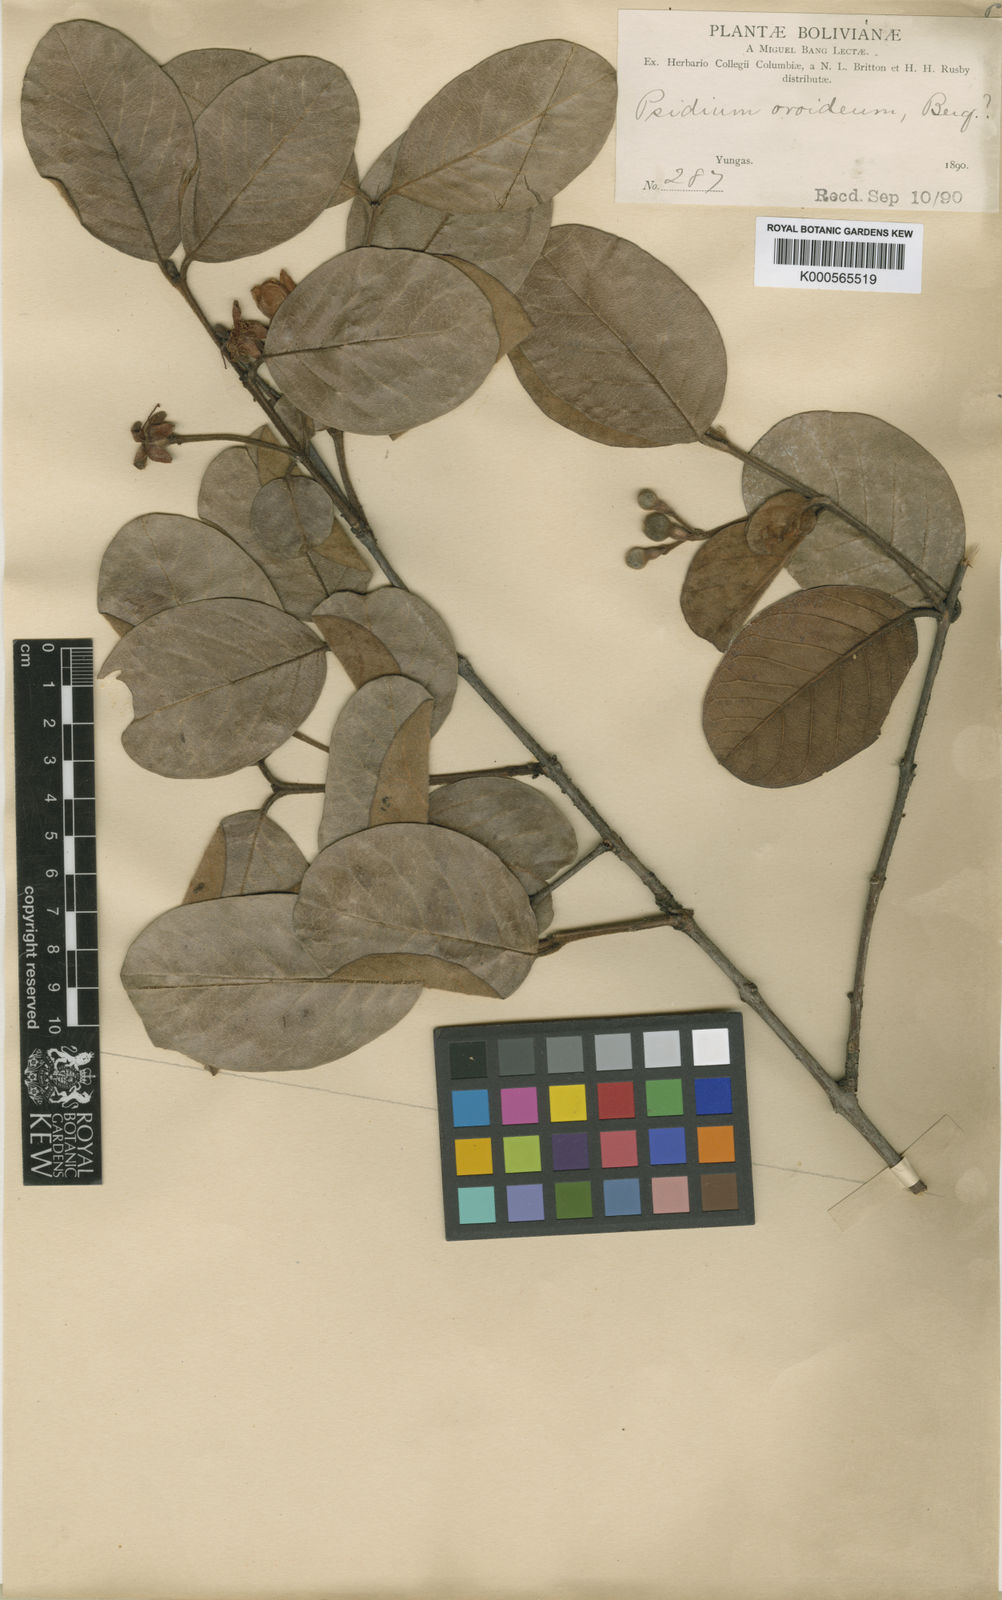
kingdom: Plantae
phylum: Tracheophyta
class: Magnoliopsida
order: Myrtales
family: Myrtaceae
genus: Psidium
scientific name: Psidium
